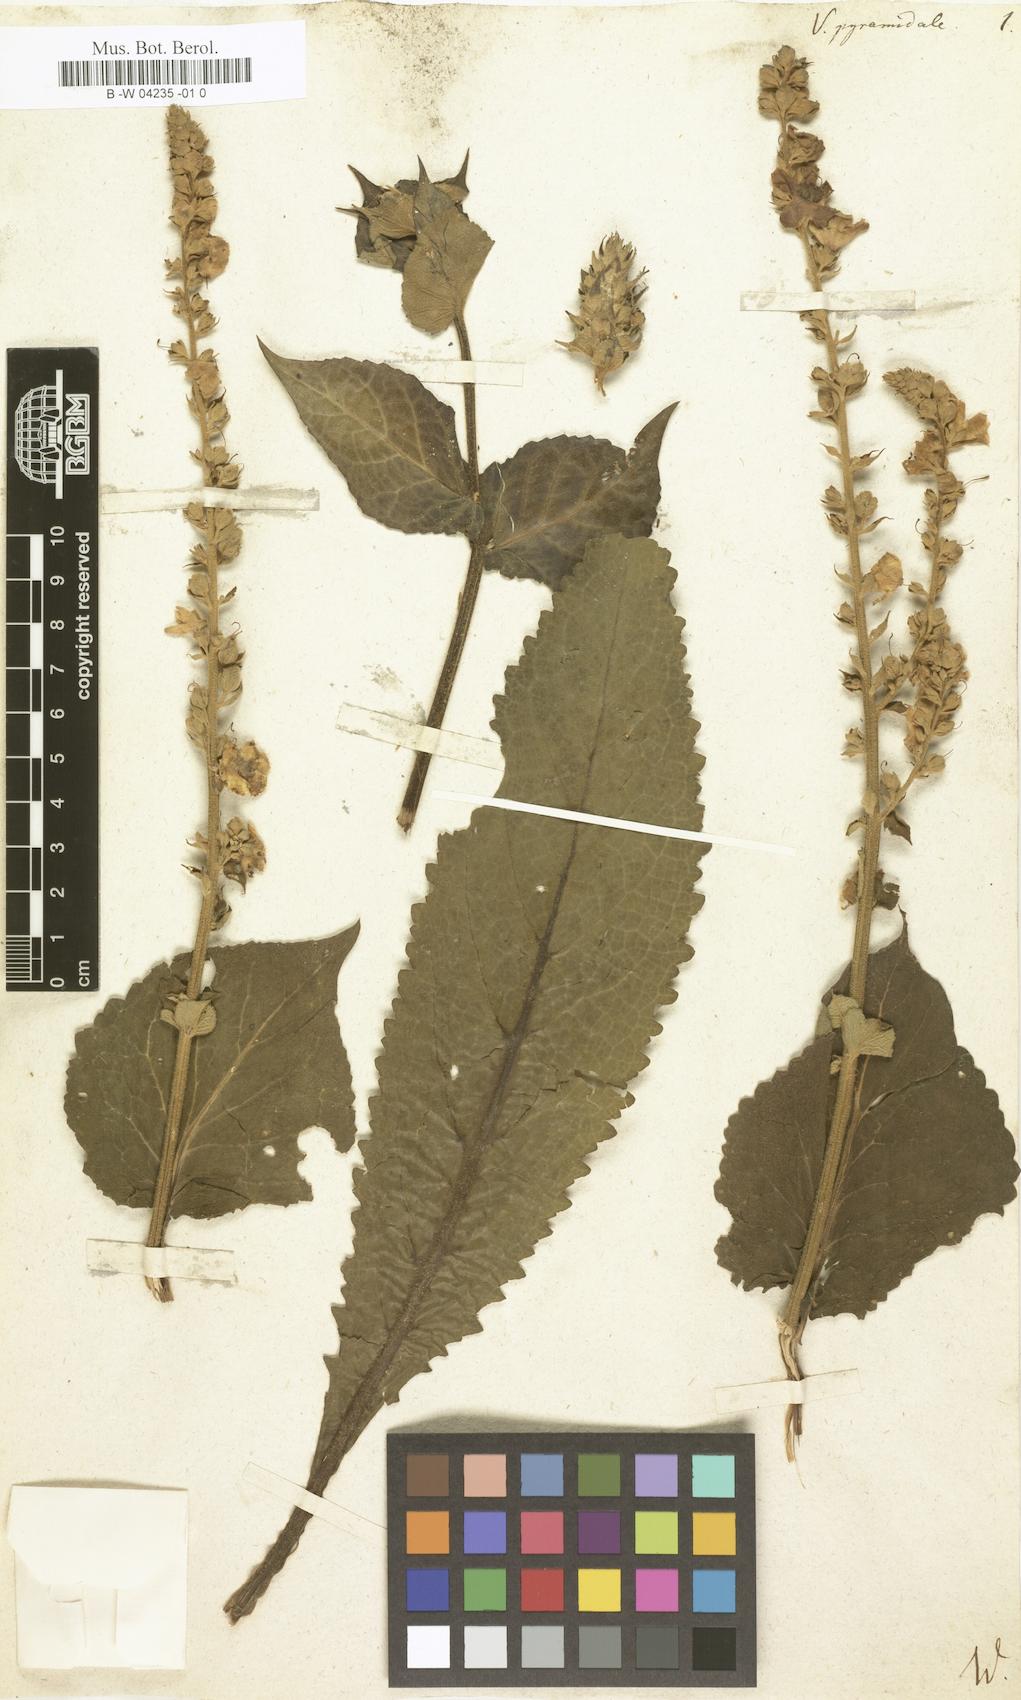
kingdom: Plantae
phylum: Tracheophyta
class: Magnoliopsida
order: Lamiales
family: Scrophulariaceae
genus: Verbascum
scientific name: Verbascum
